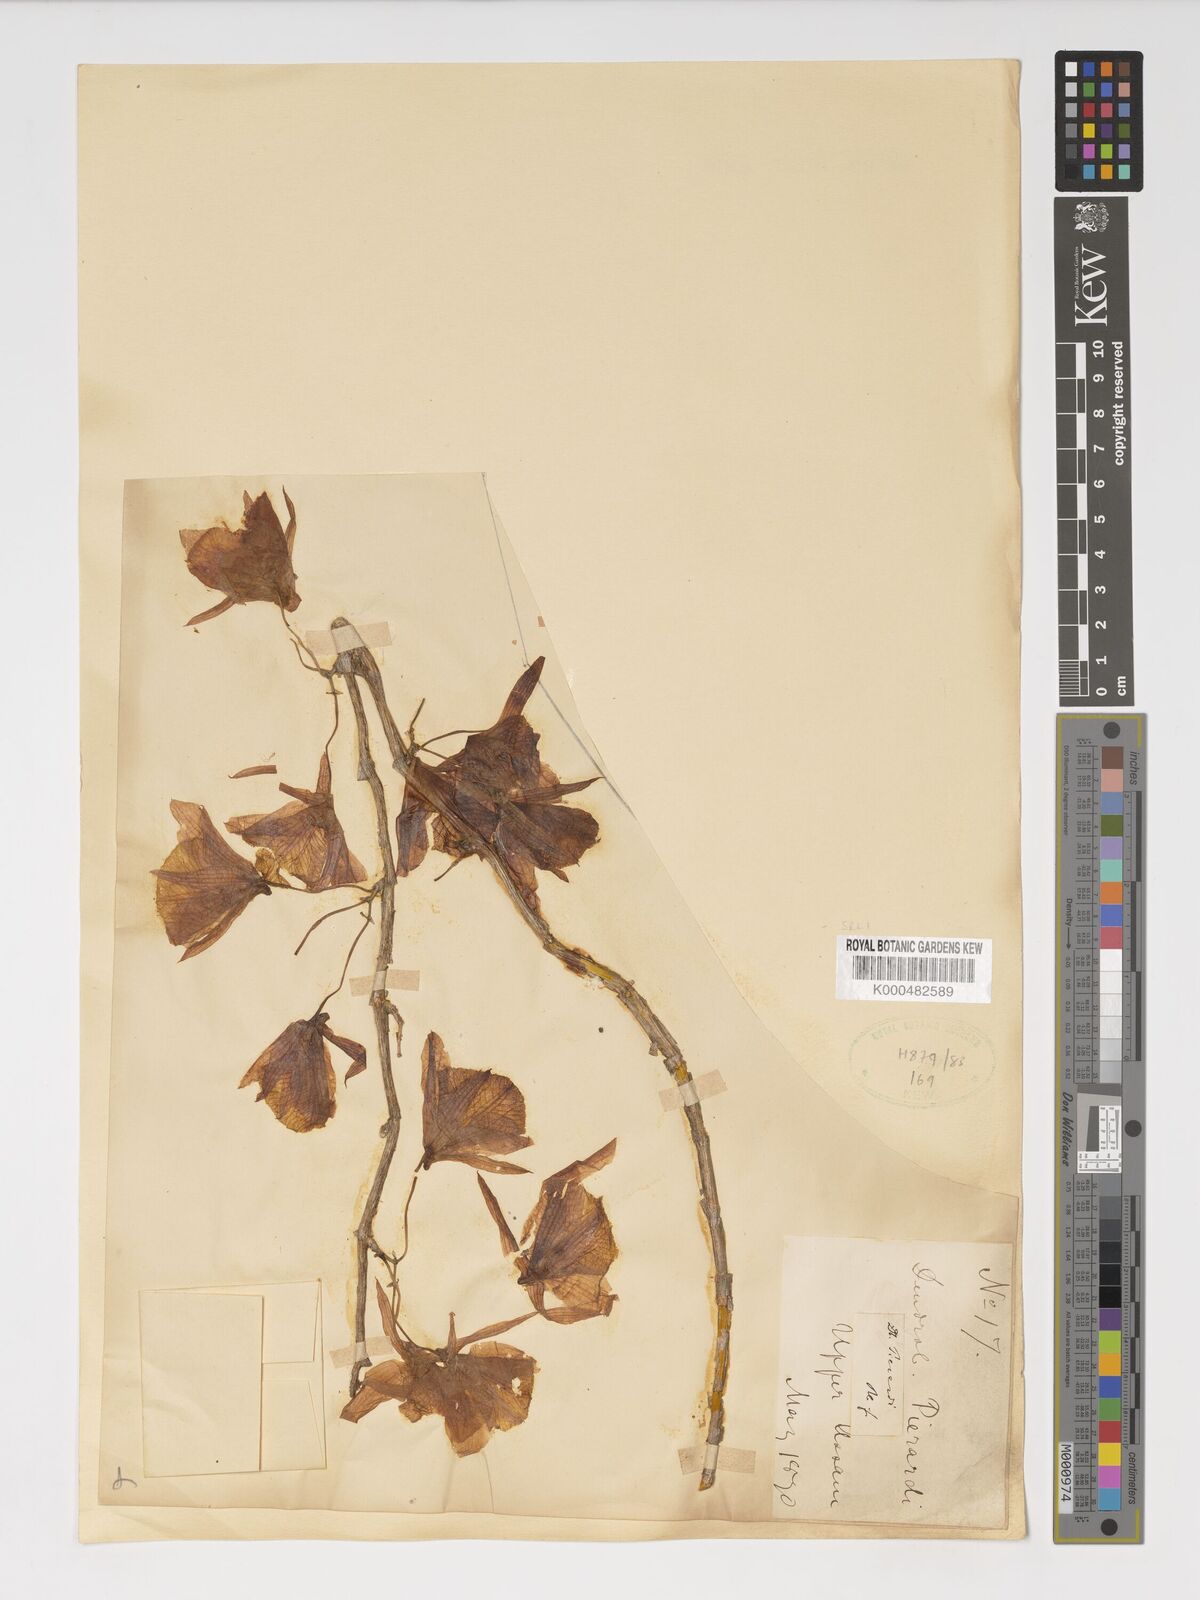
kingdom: Plantae
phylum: Tracheophyta
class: Liliopsida
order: Asparagales
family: Orchidaceae
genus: Dendrobium
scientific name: Dendrobium macrostachyum
